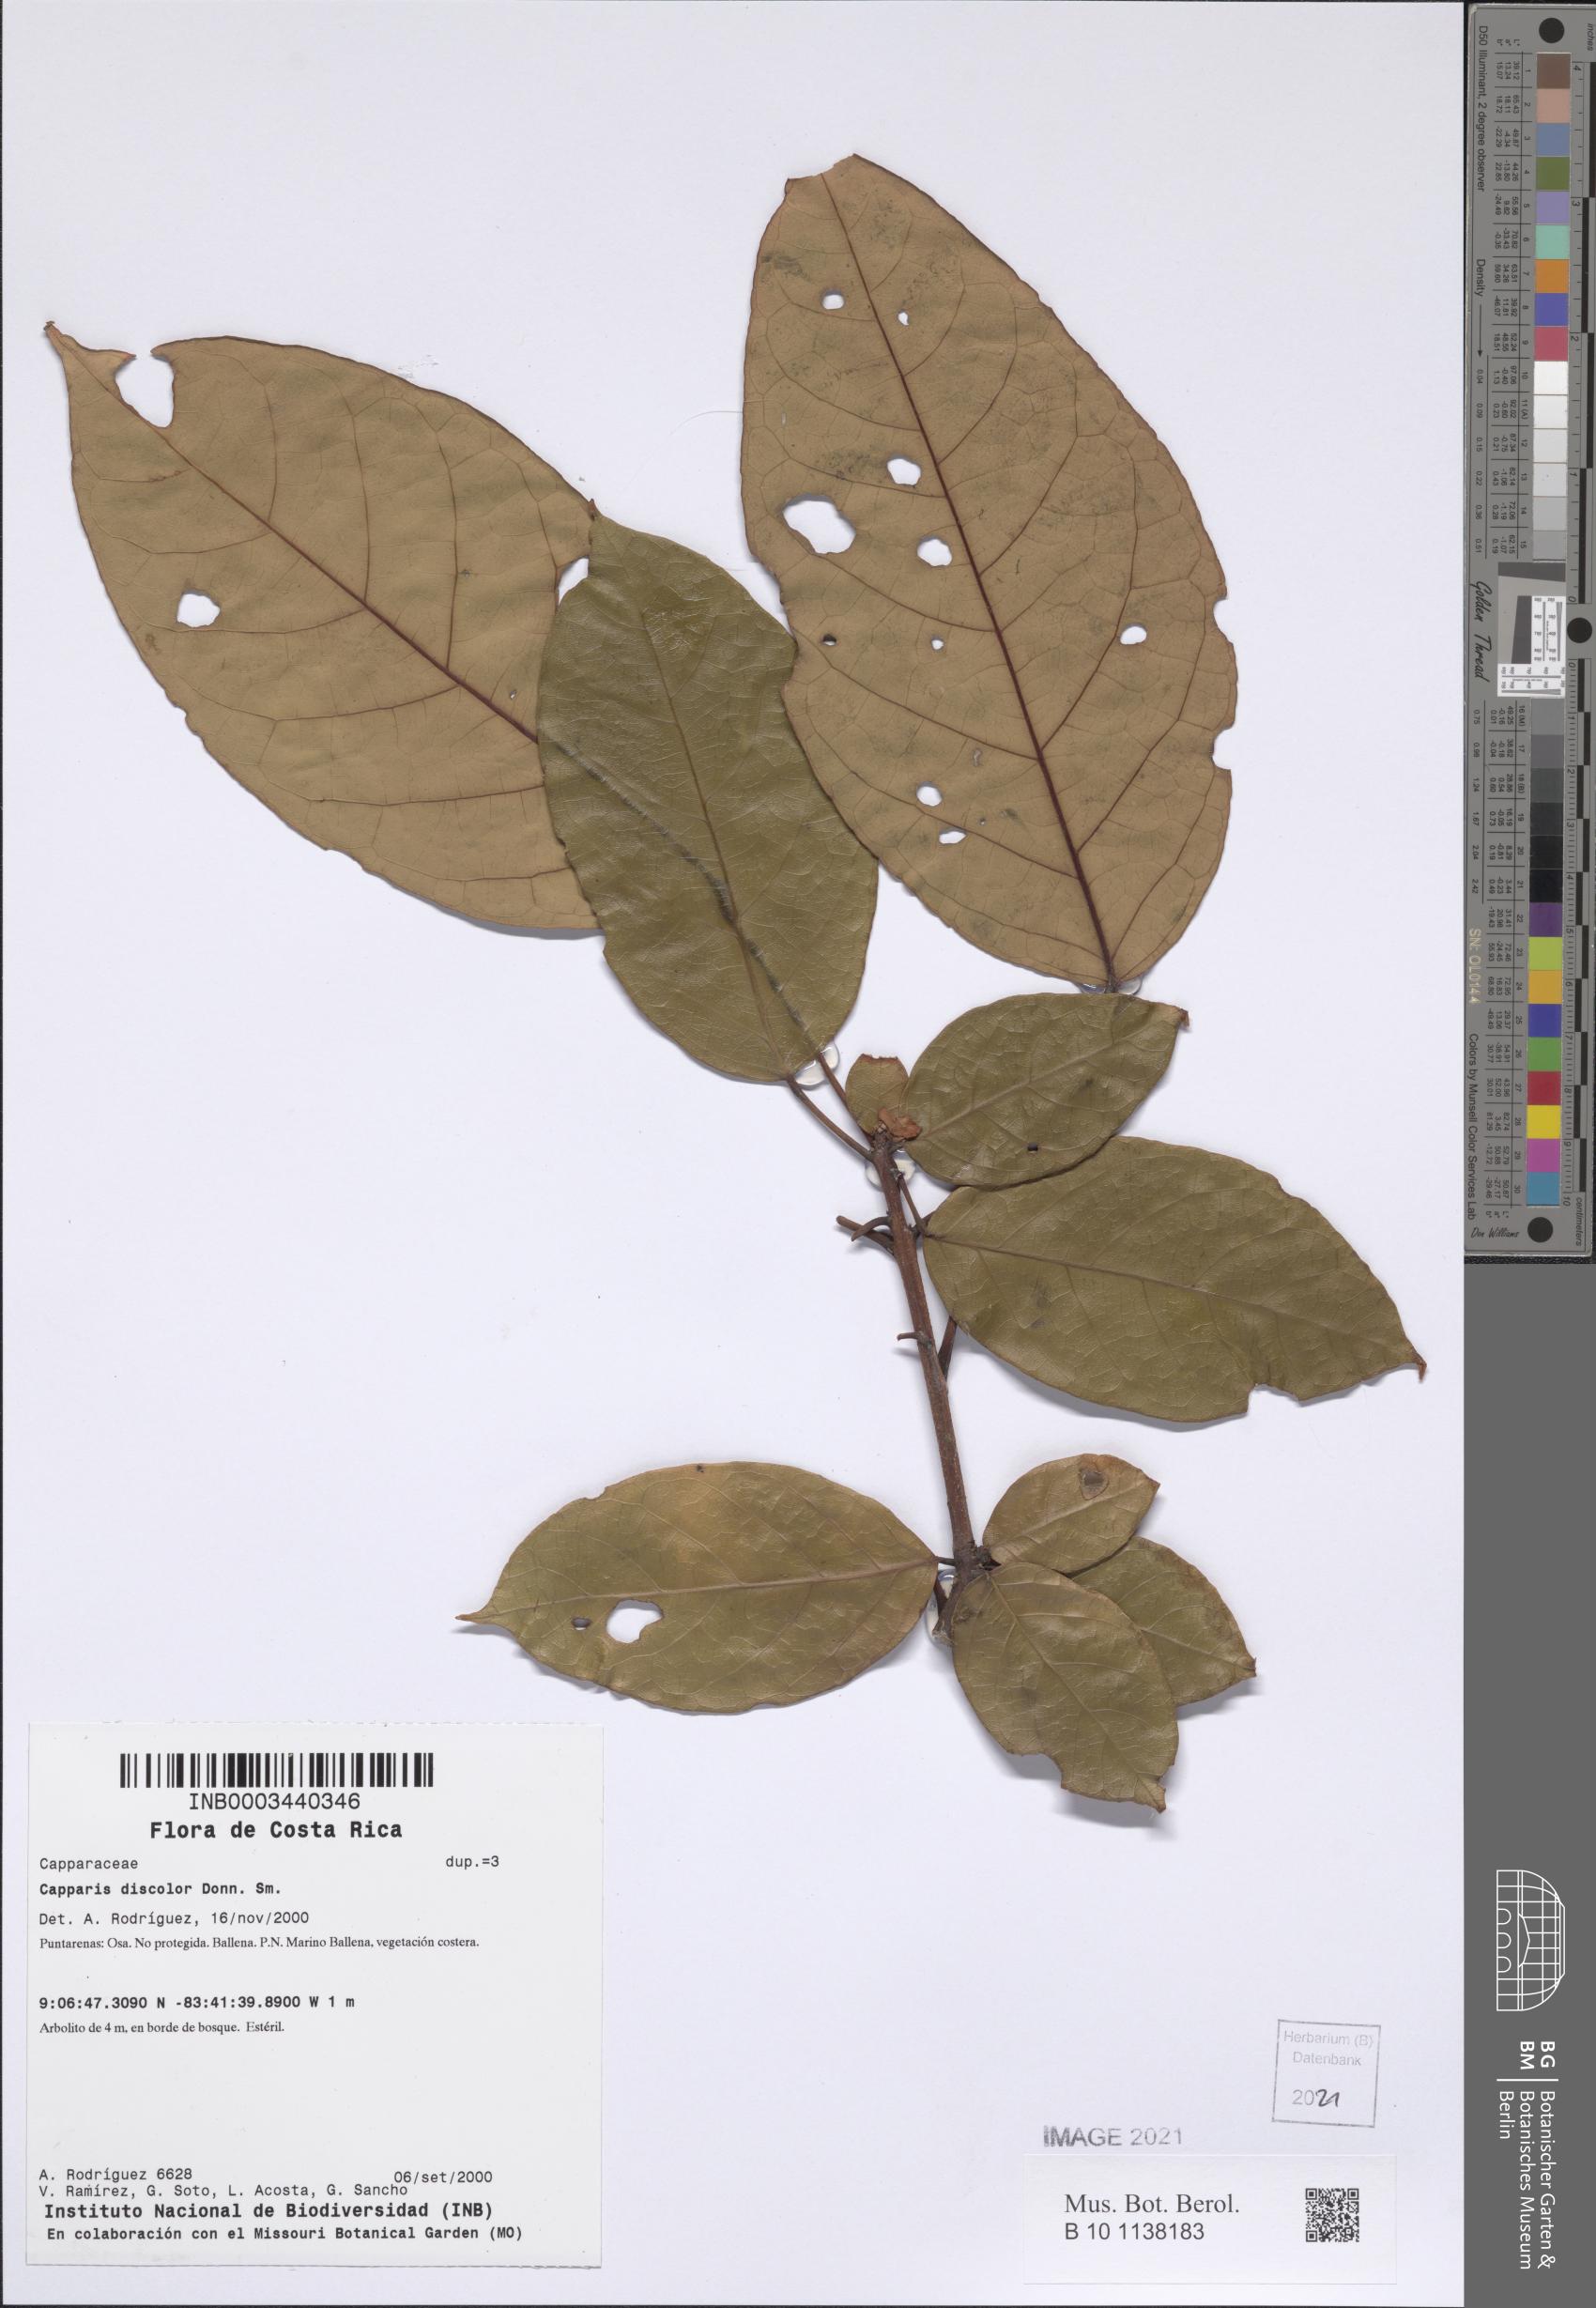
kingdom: Plantae
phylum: Tracheophyta
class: Magnoliopsida
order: Brassicales
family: Capparaceae
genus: Capparidastrum
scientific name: Capparidastrum discolor
